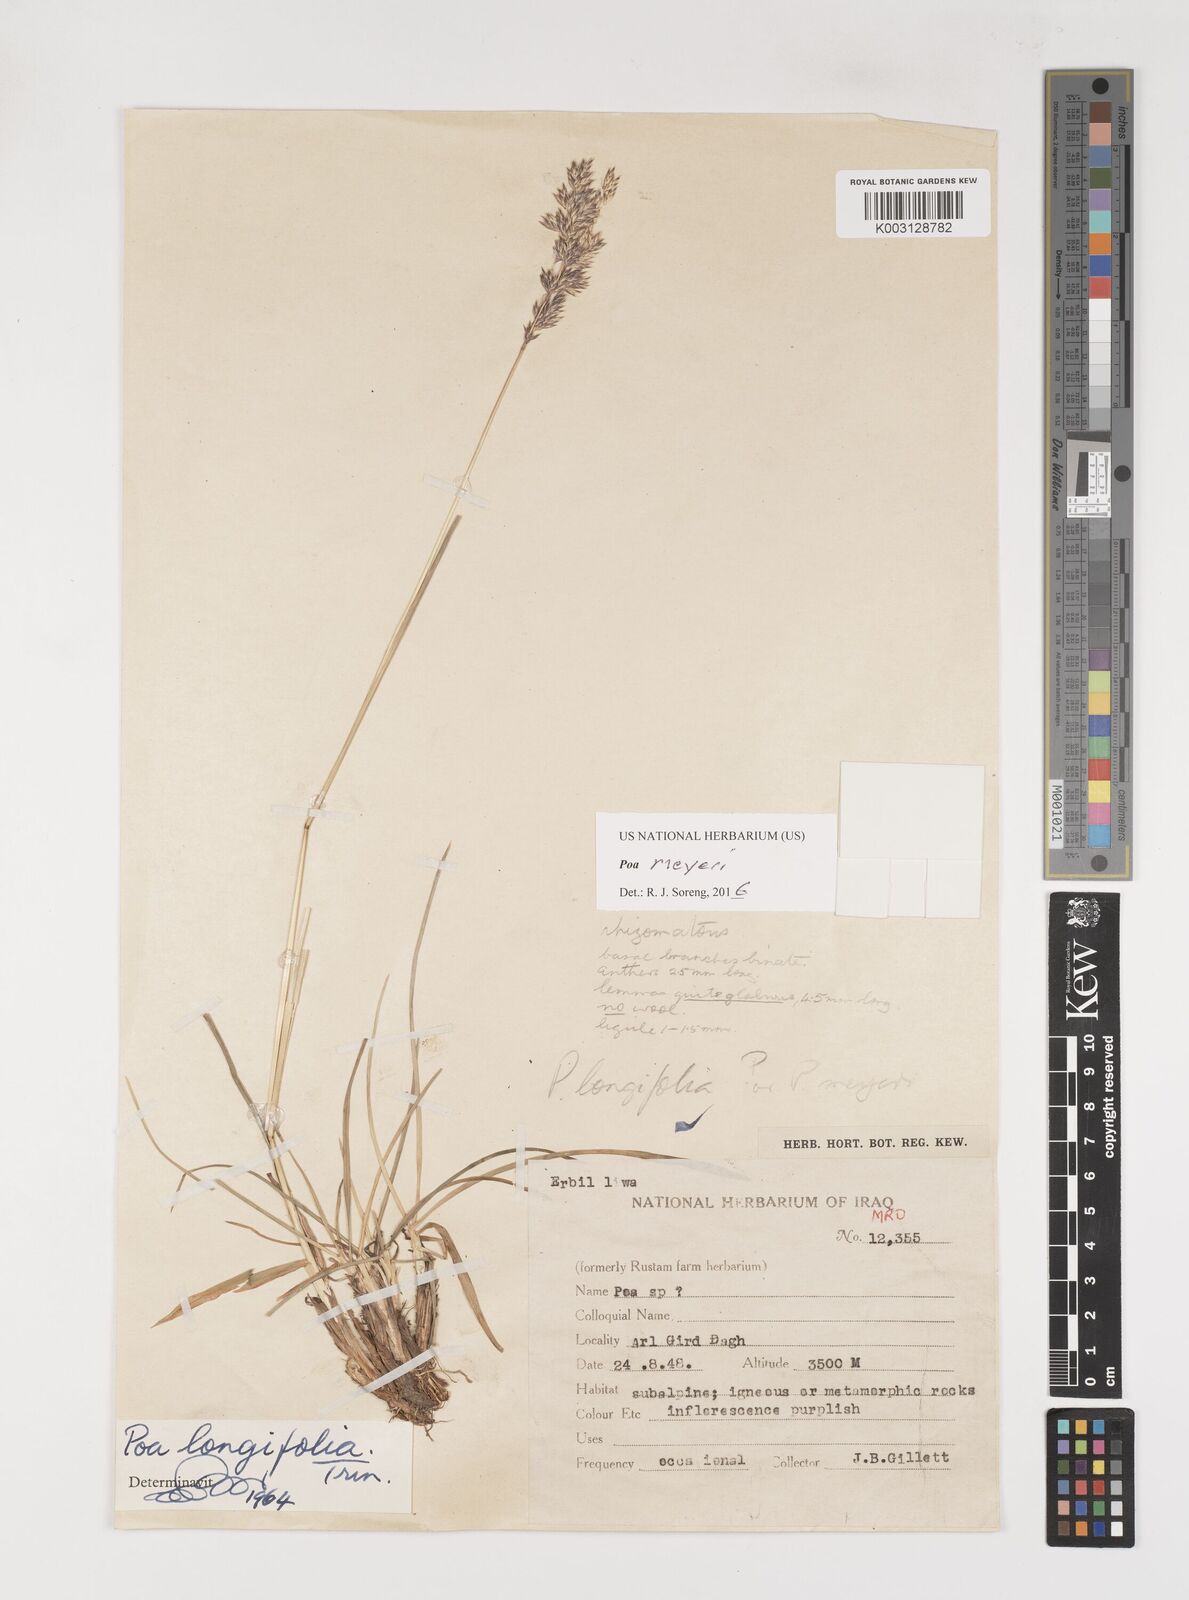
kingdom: Plantae
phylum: Tracheophyta
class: Liliopsida
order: Poales
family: Poaceae
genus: Poa
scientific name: Poa longifolia
